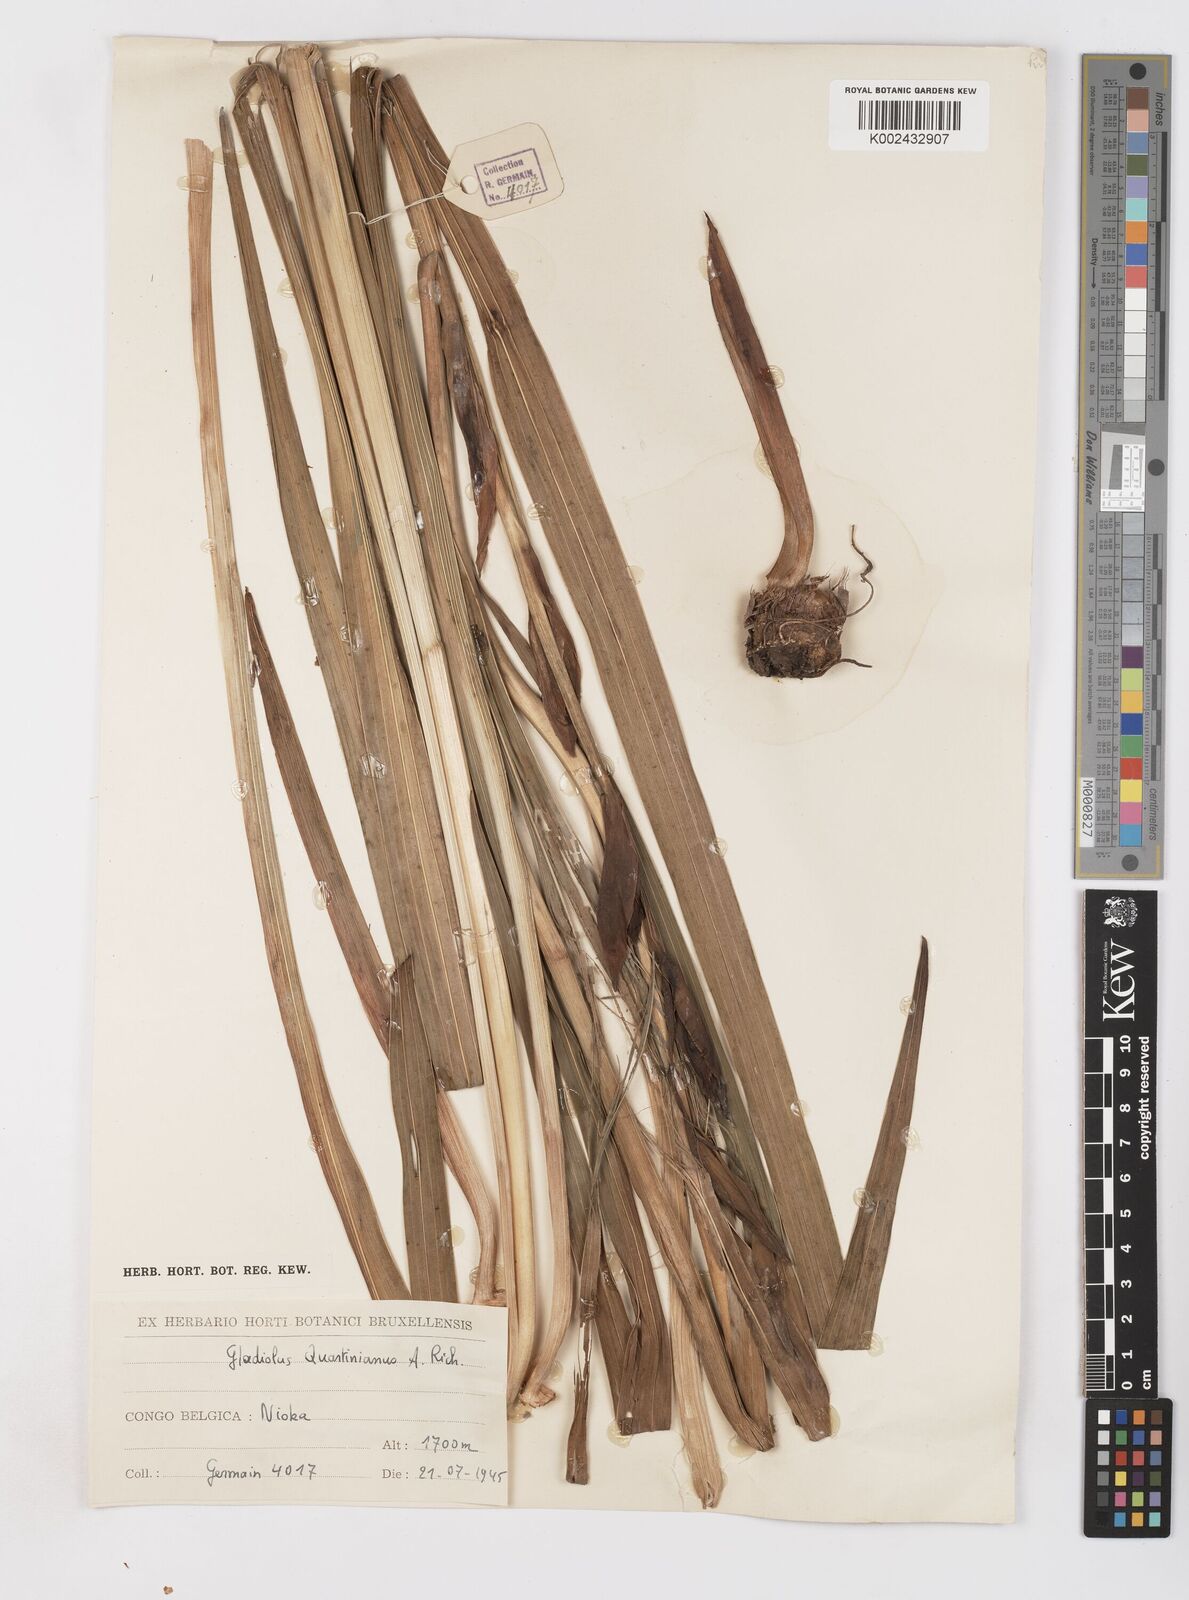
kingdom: Plantae
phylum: Tracheophyta
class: Liliopsida
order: Asparagales
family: Iridaceae
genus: Gladiolus
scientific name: Gladiolus dalenii
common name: Cornflag
